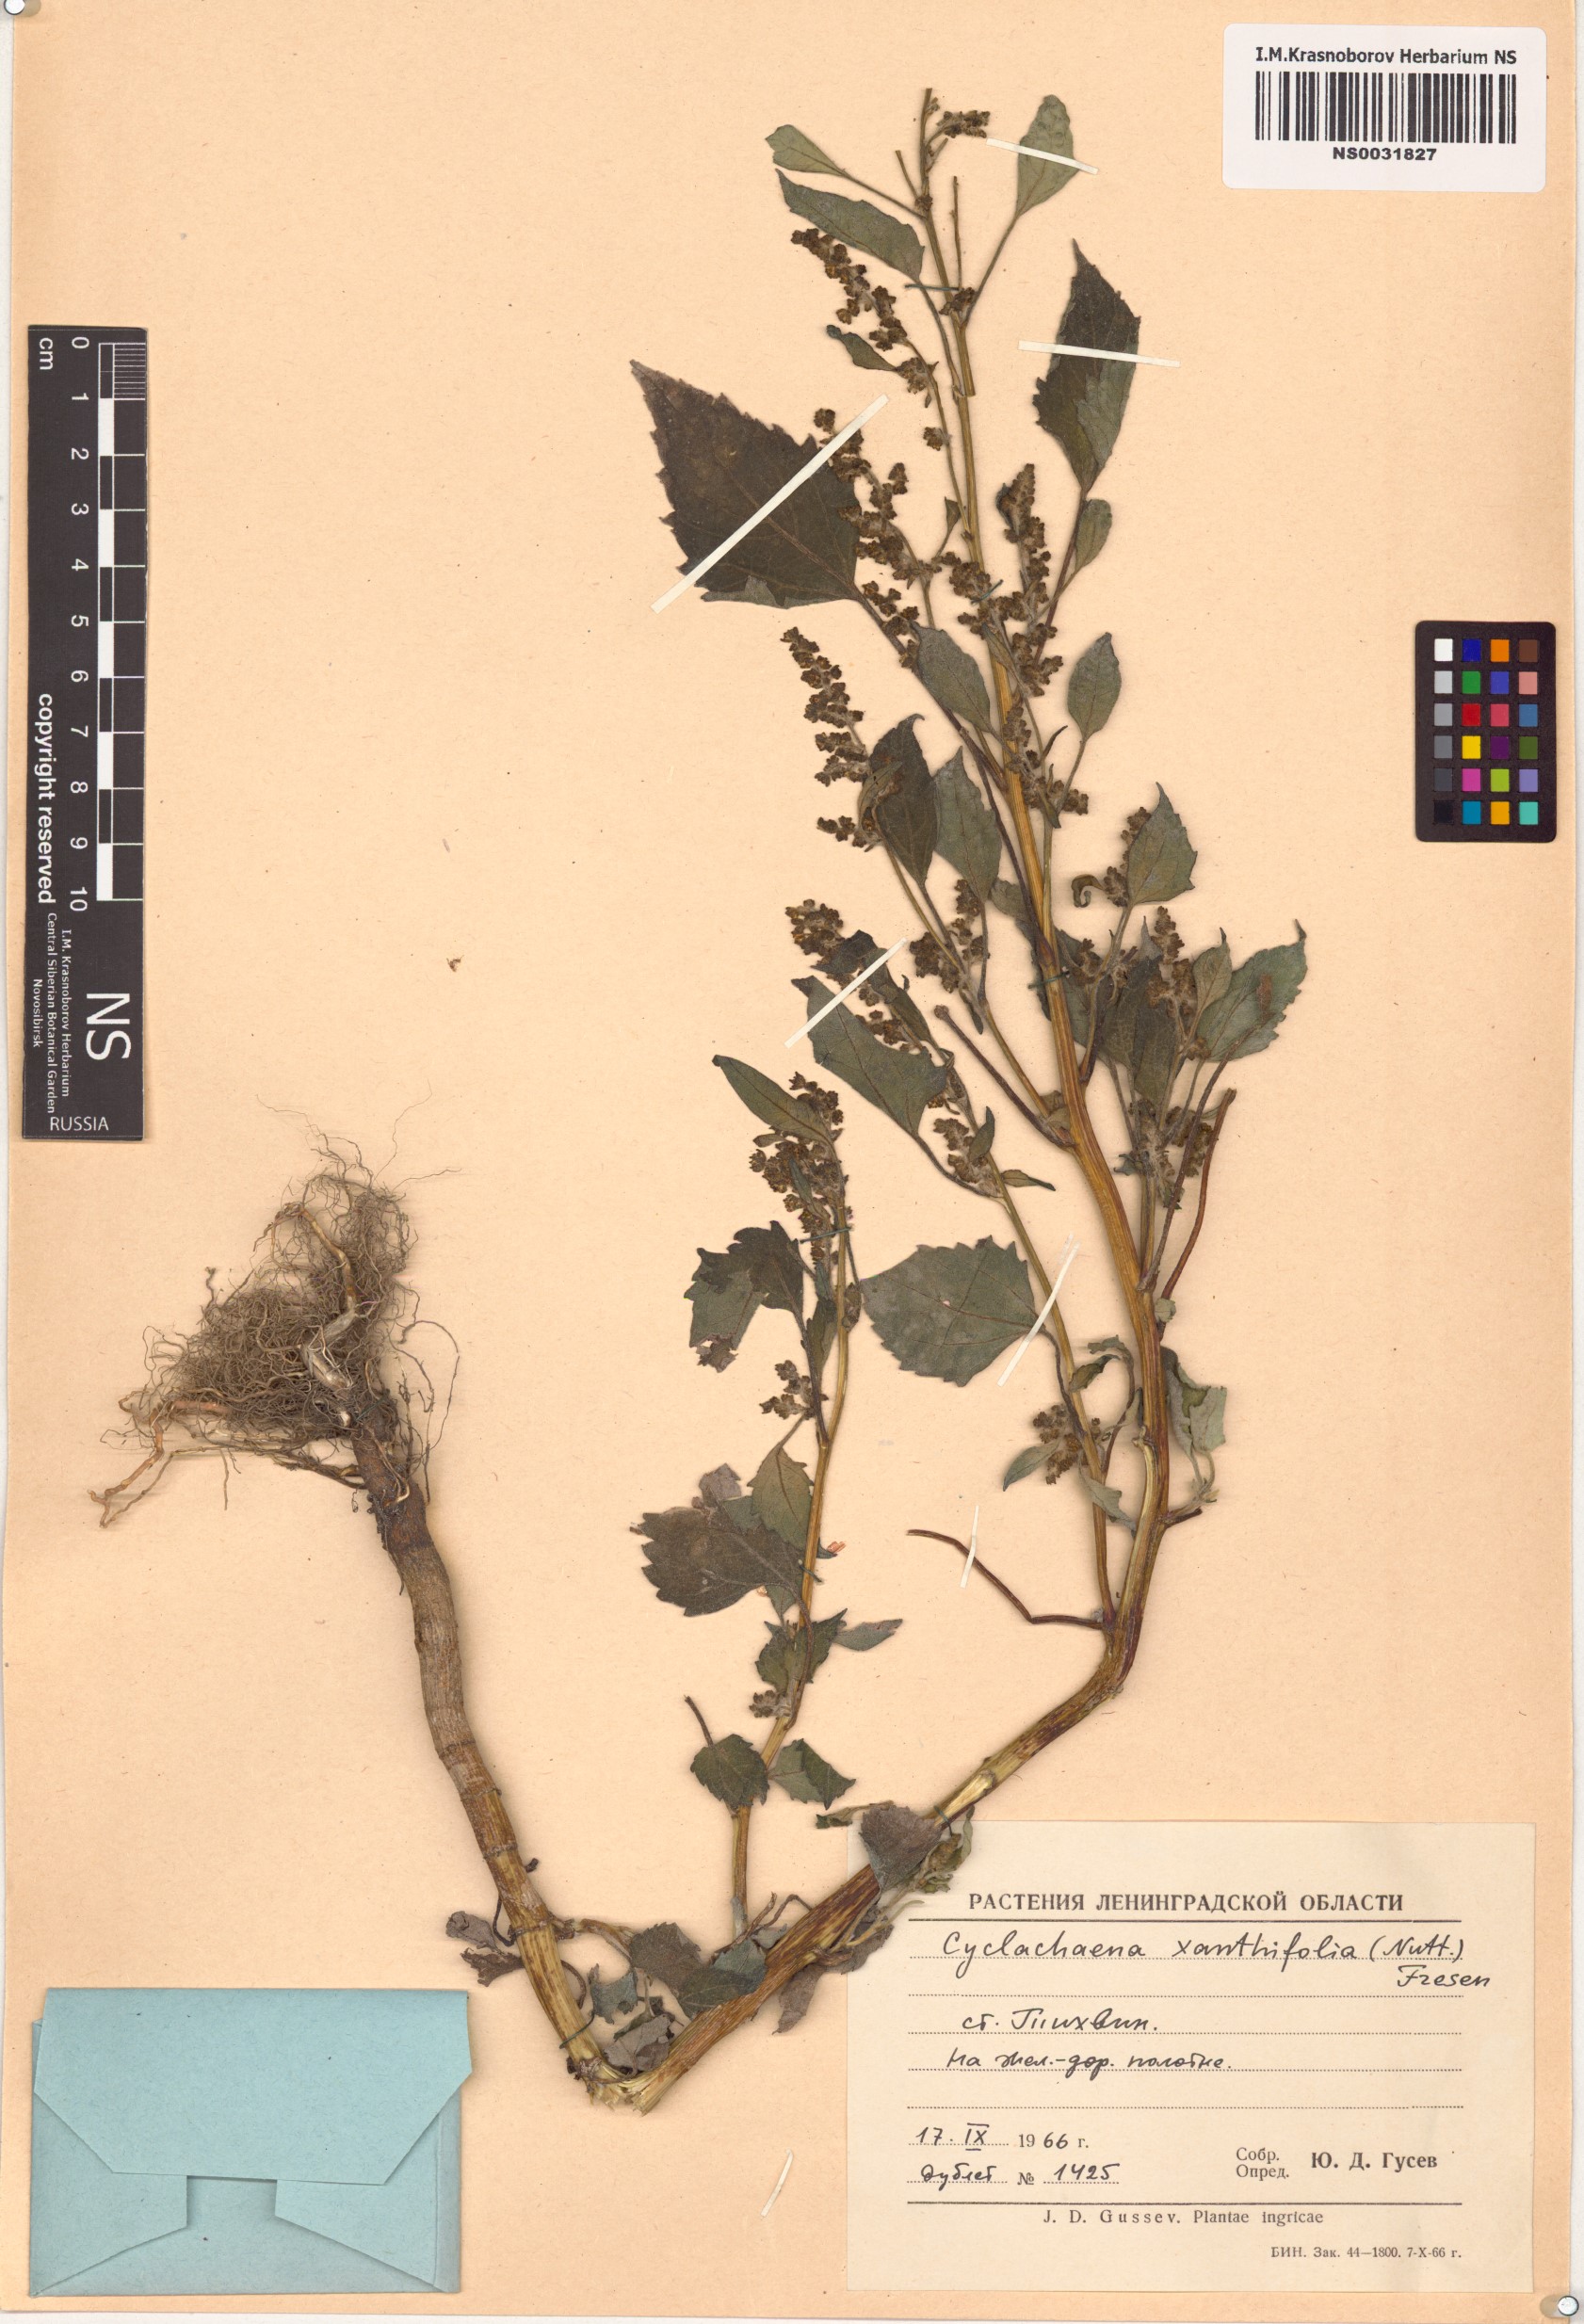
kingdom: Plantae
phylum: Tracheophyta
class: Magnoliopsida
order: Asterales
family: Asteraceae
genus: Cyclachaena
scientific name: Cyclachaena xanthiifolia
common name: Giant sumpweed
